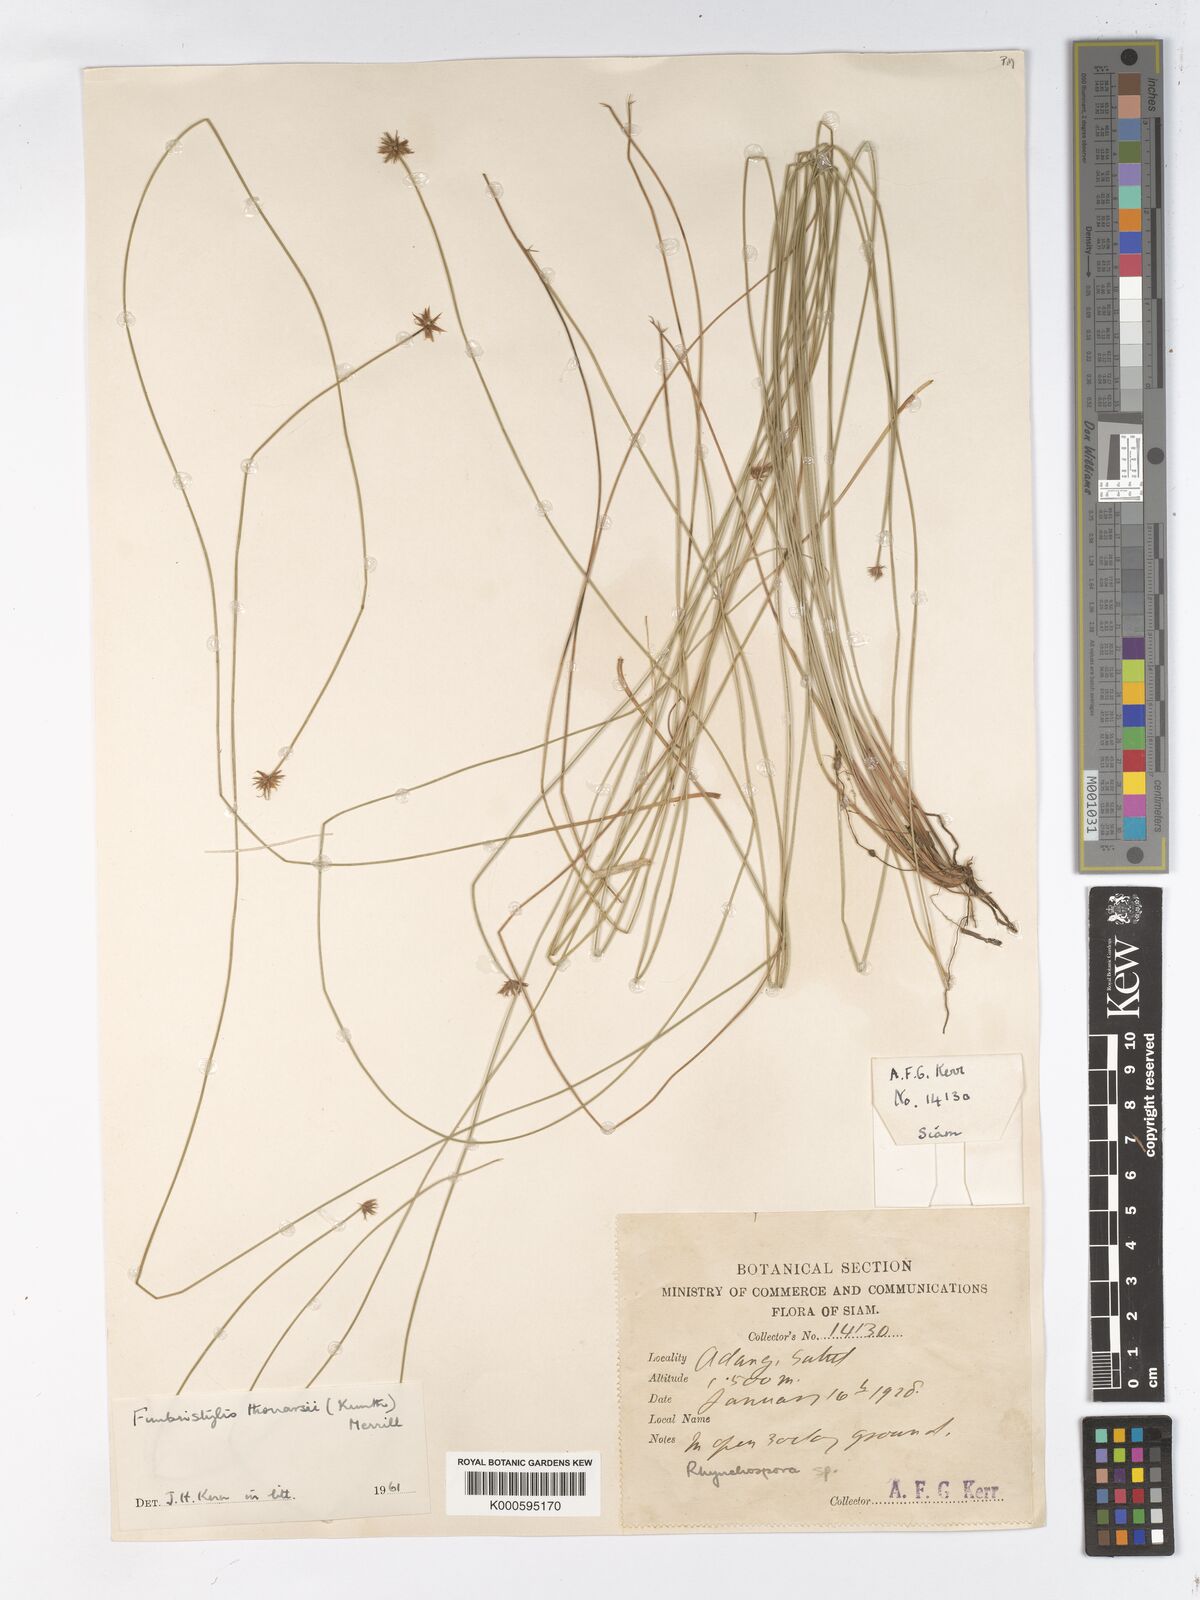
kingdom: Plantae
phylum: Tracheophyta
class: Liliopsida
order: Poales
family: Cyperaceae
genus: Actinoschoenus
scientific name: Actinoschoenus aphyllus
